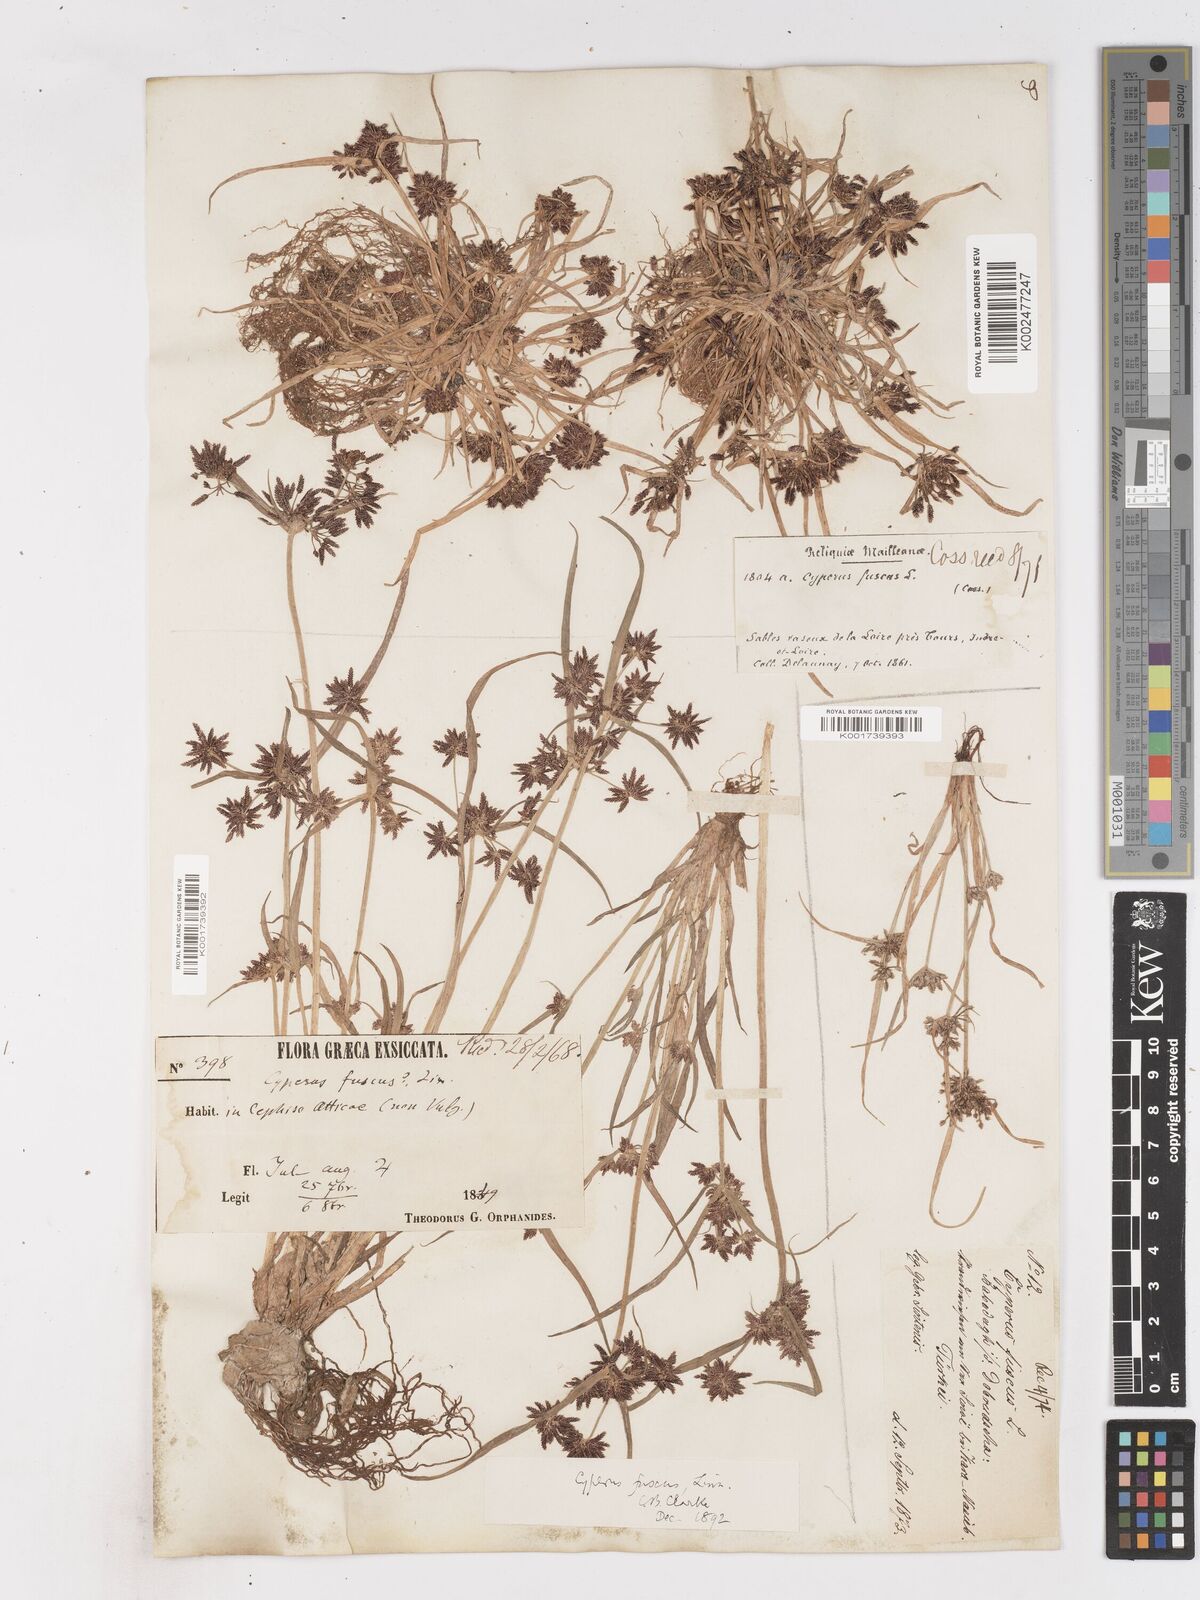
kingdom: Plantae
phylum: Tracheophyta
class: Liliopsida
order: Poales
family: Cyperaceae
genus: Cyperus
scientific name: Cyperus fuscus
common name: Brown galingale
